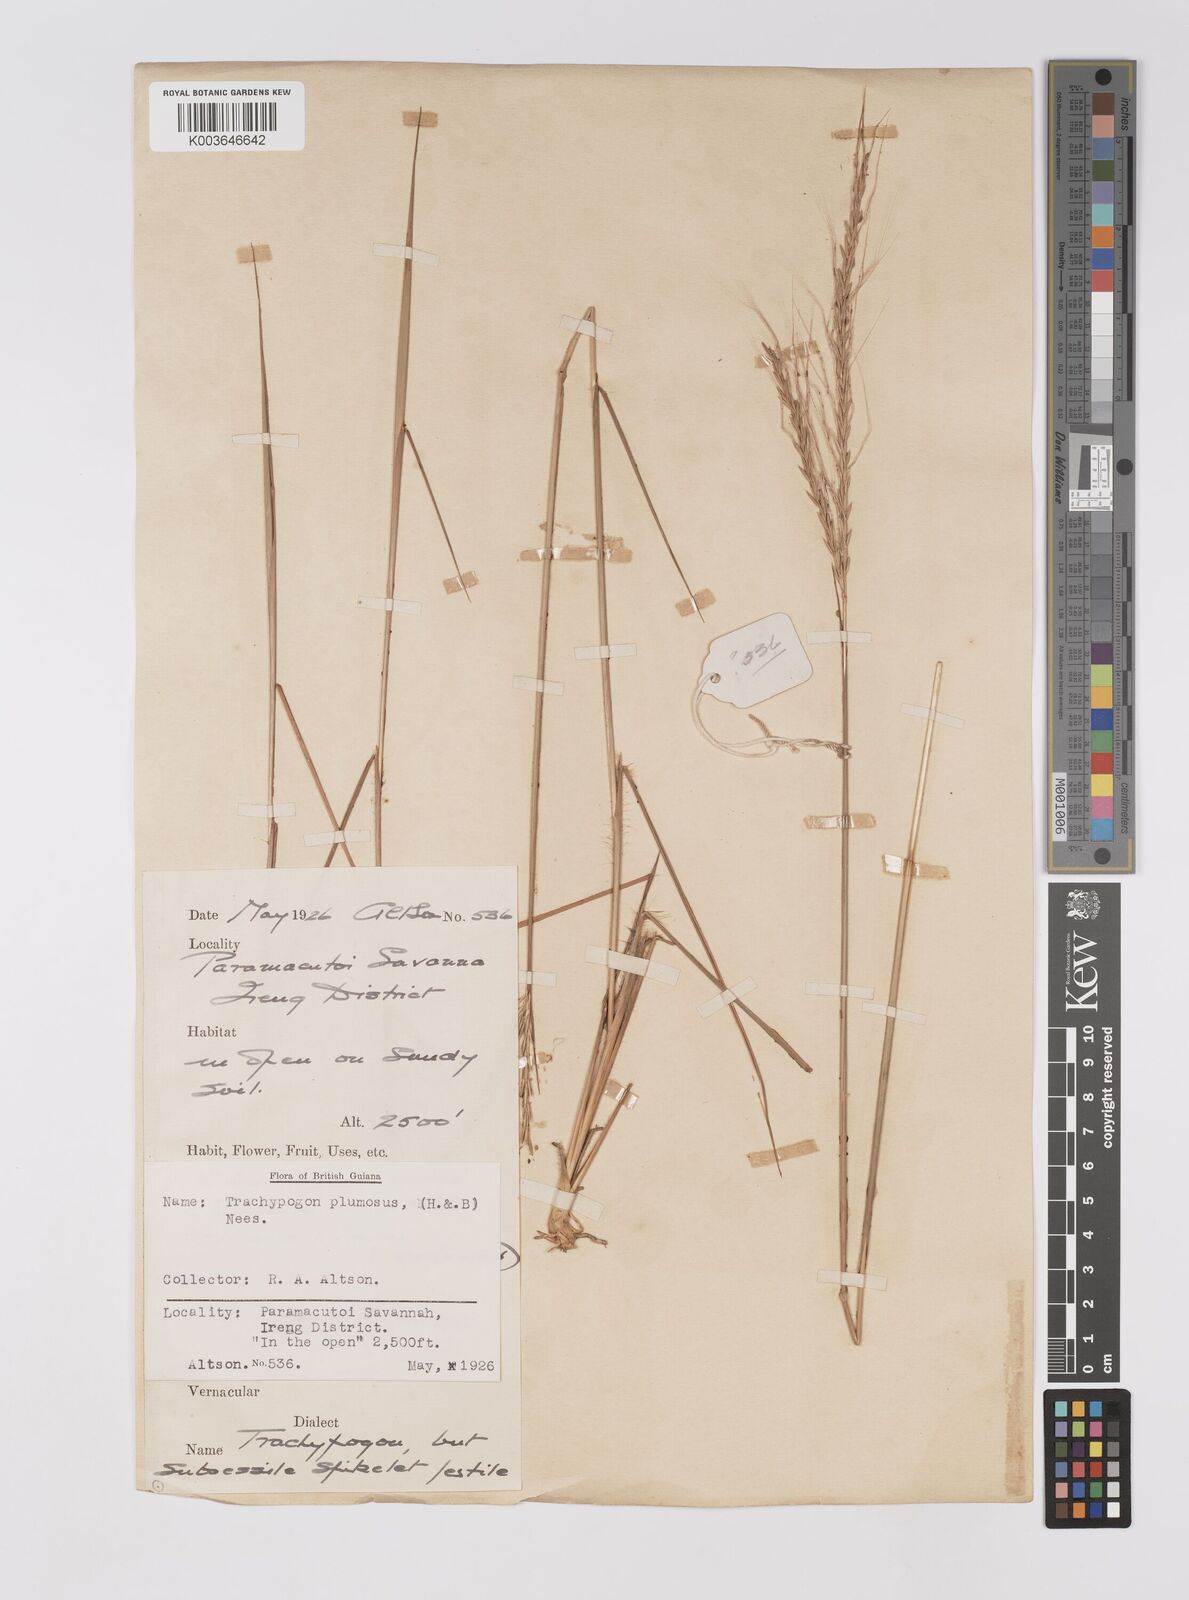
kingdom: Plantae
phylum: Tracheophyta
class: Liliopsida
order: Poales
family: Poaceae
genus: Trachypogon
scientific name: Trachypogon spicatus
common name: Crinkle-awn
